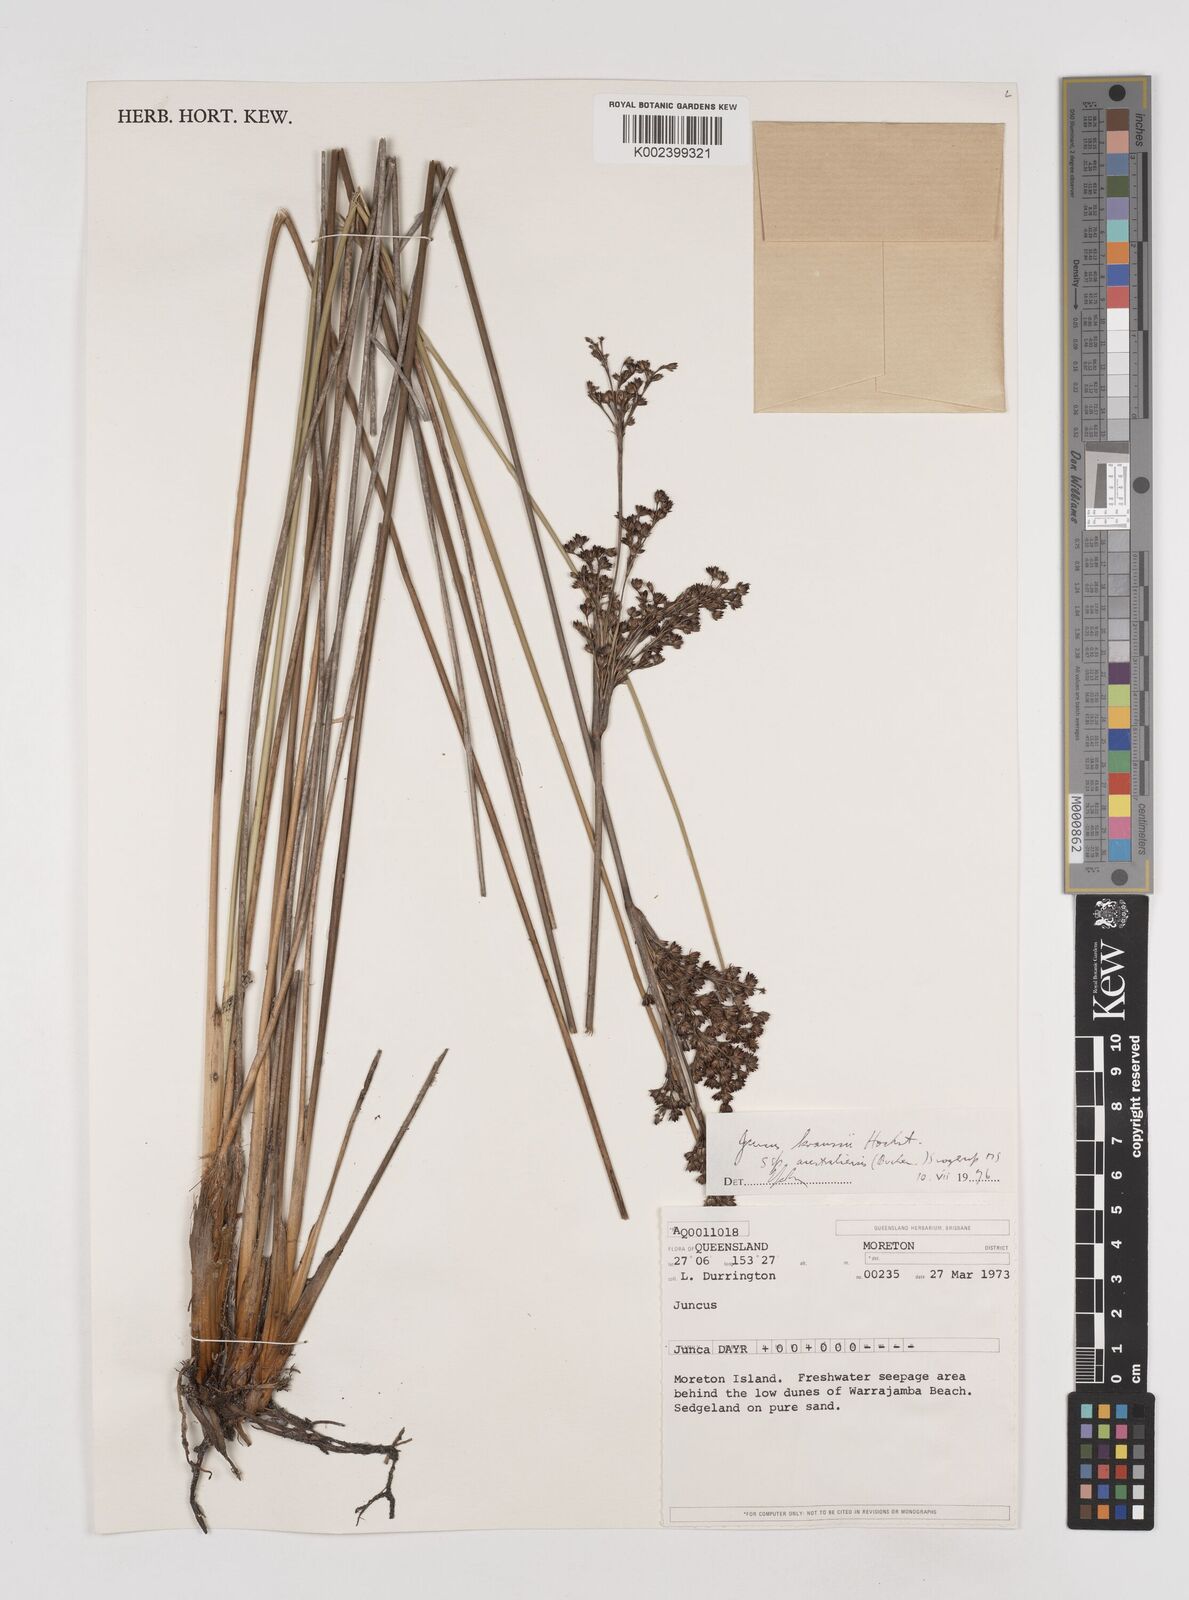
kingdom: Plantae
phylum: Tracheophyta
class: Liliopsida
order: Poales
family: Juncaceae
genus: Juncus
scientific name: Juncus kraussii
